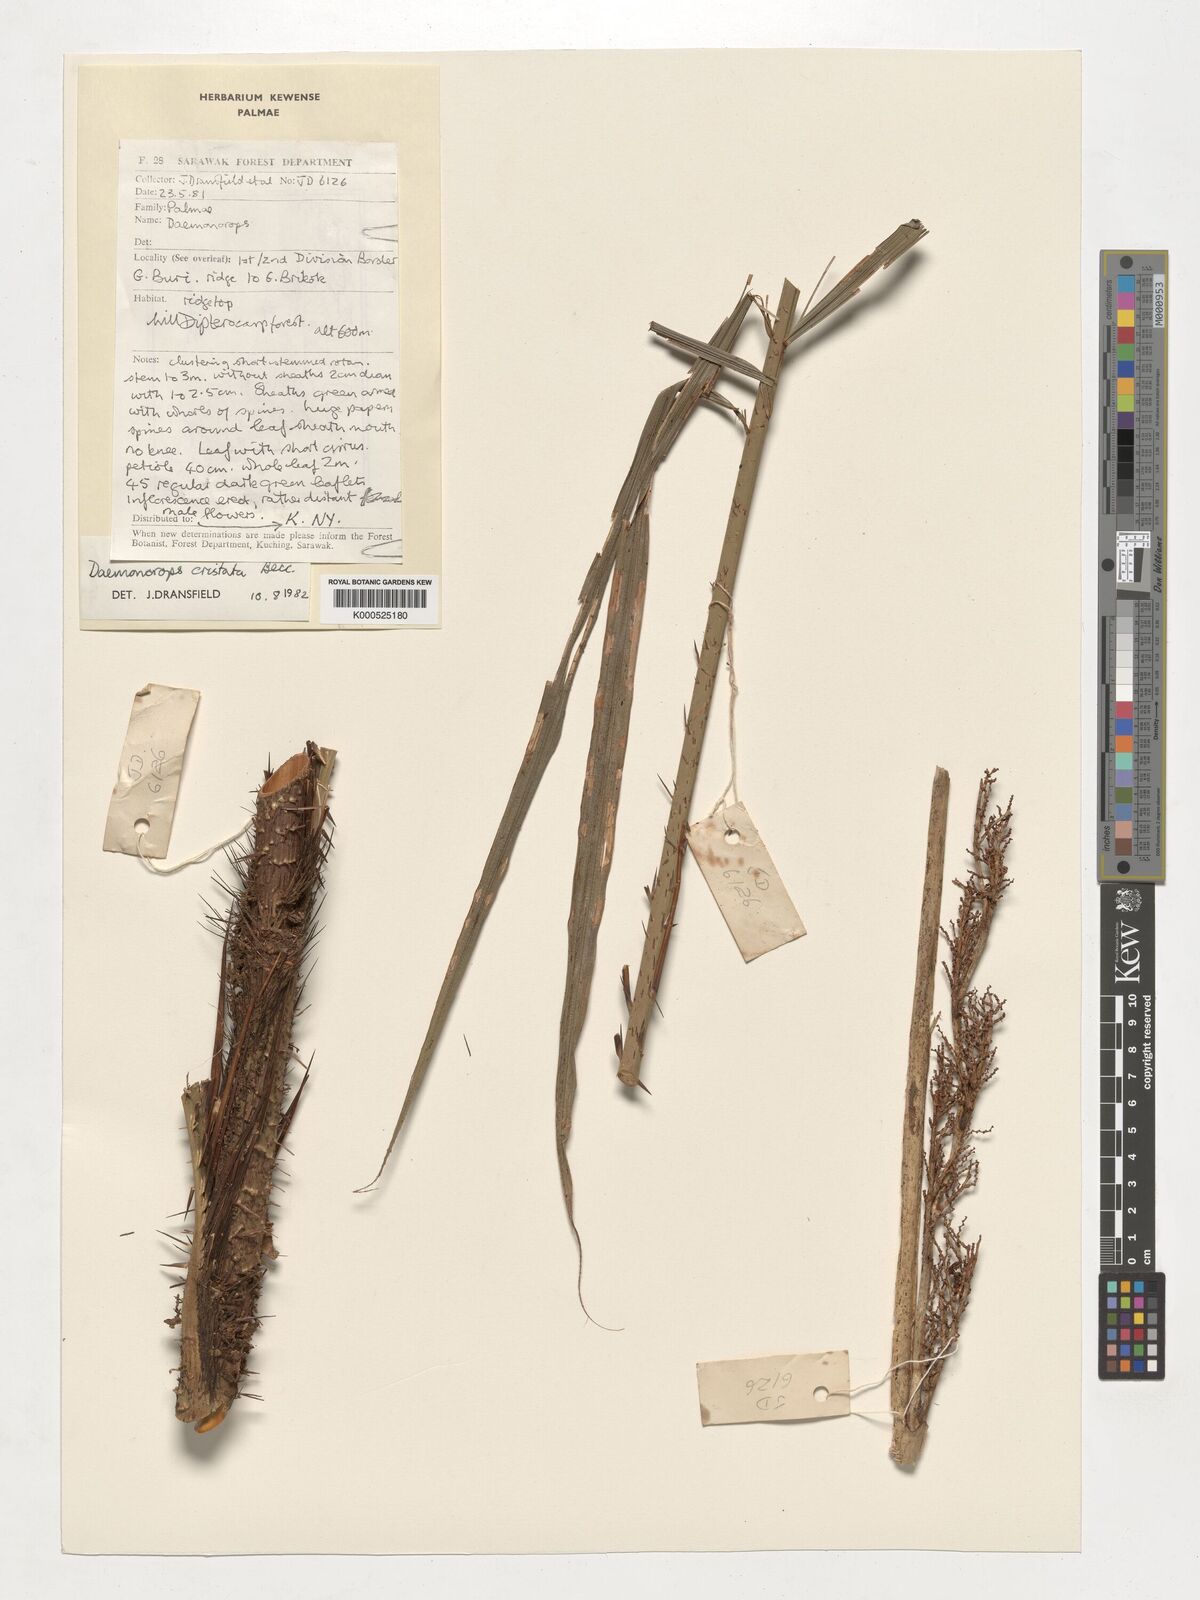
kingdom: Plantae
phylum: Tracheophyta
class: Liliopsida
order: Arecales
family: Arecaceae
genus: Calamus
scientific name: Calamus cristatus
